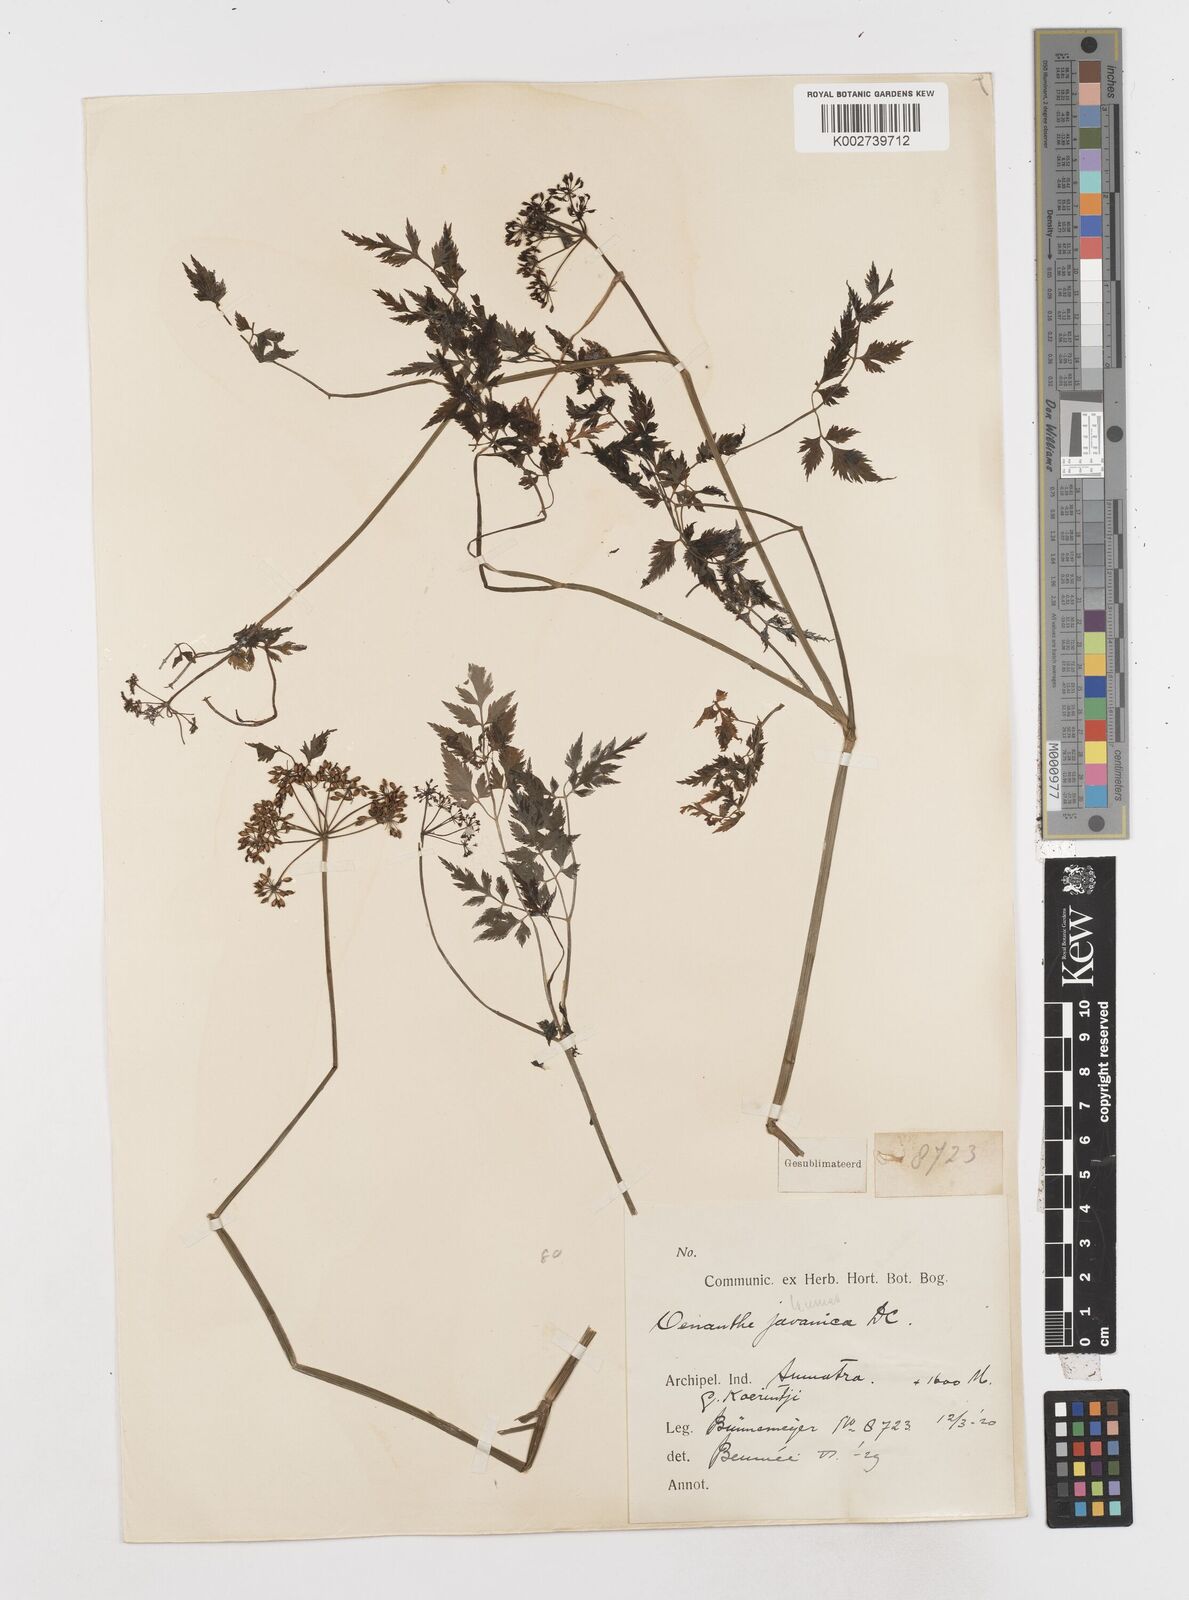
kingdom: Plantae
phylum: Tracheophyta
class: Magnoliopsida
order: Apiales
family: Apiaceae
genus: Oenanthe
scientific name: Oenanthe javanica
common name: Java water-dropwort
